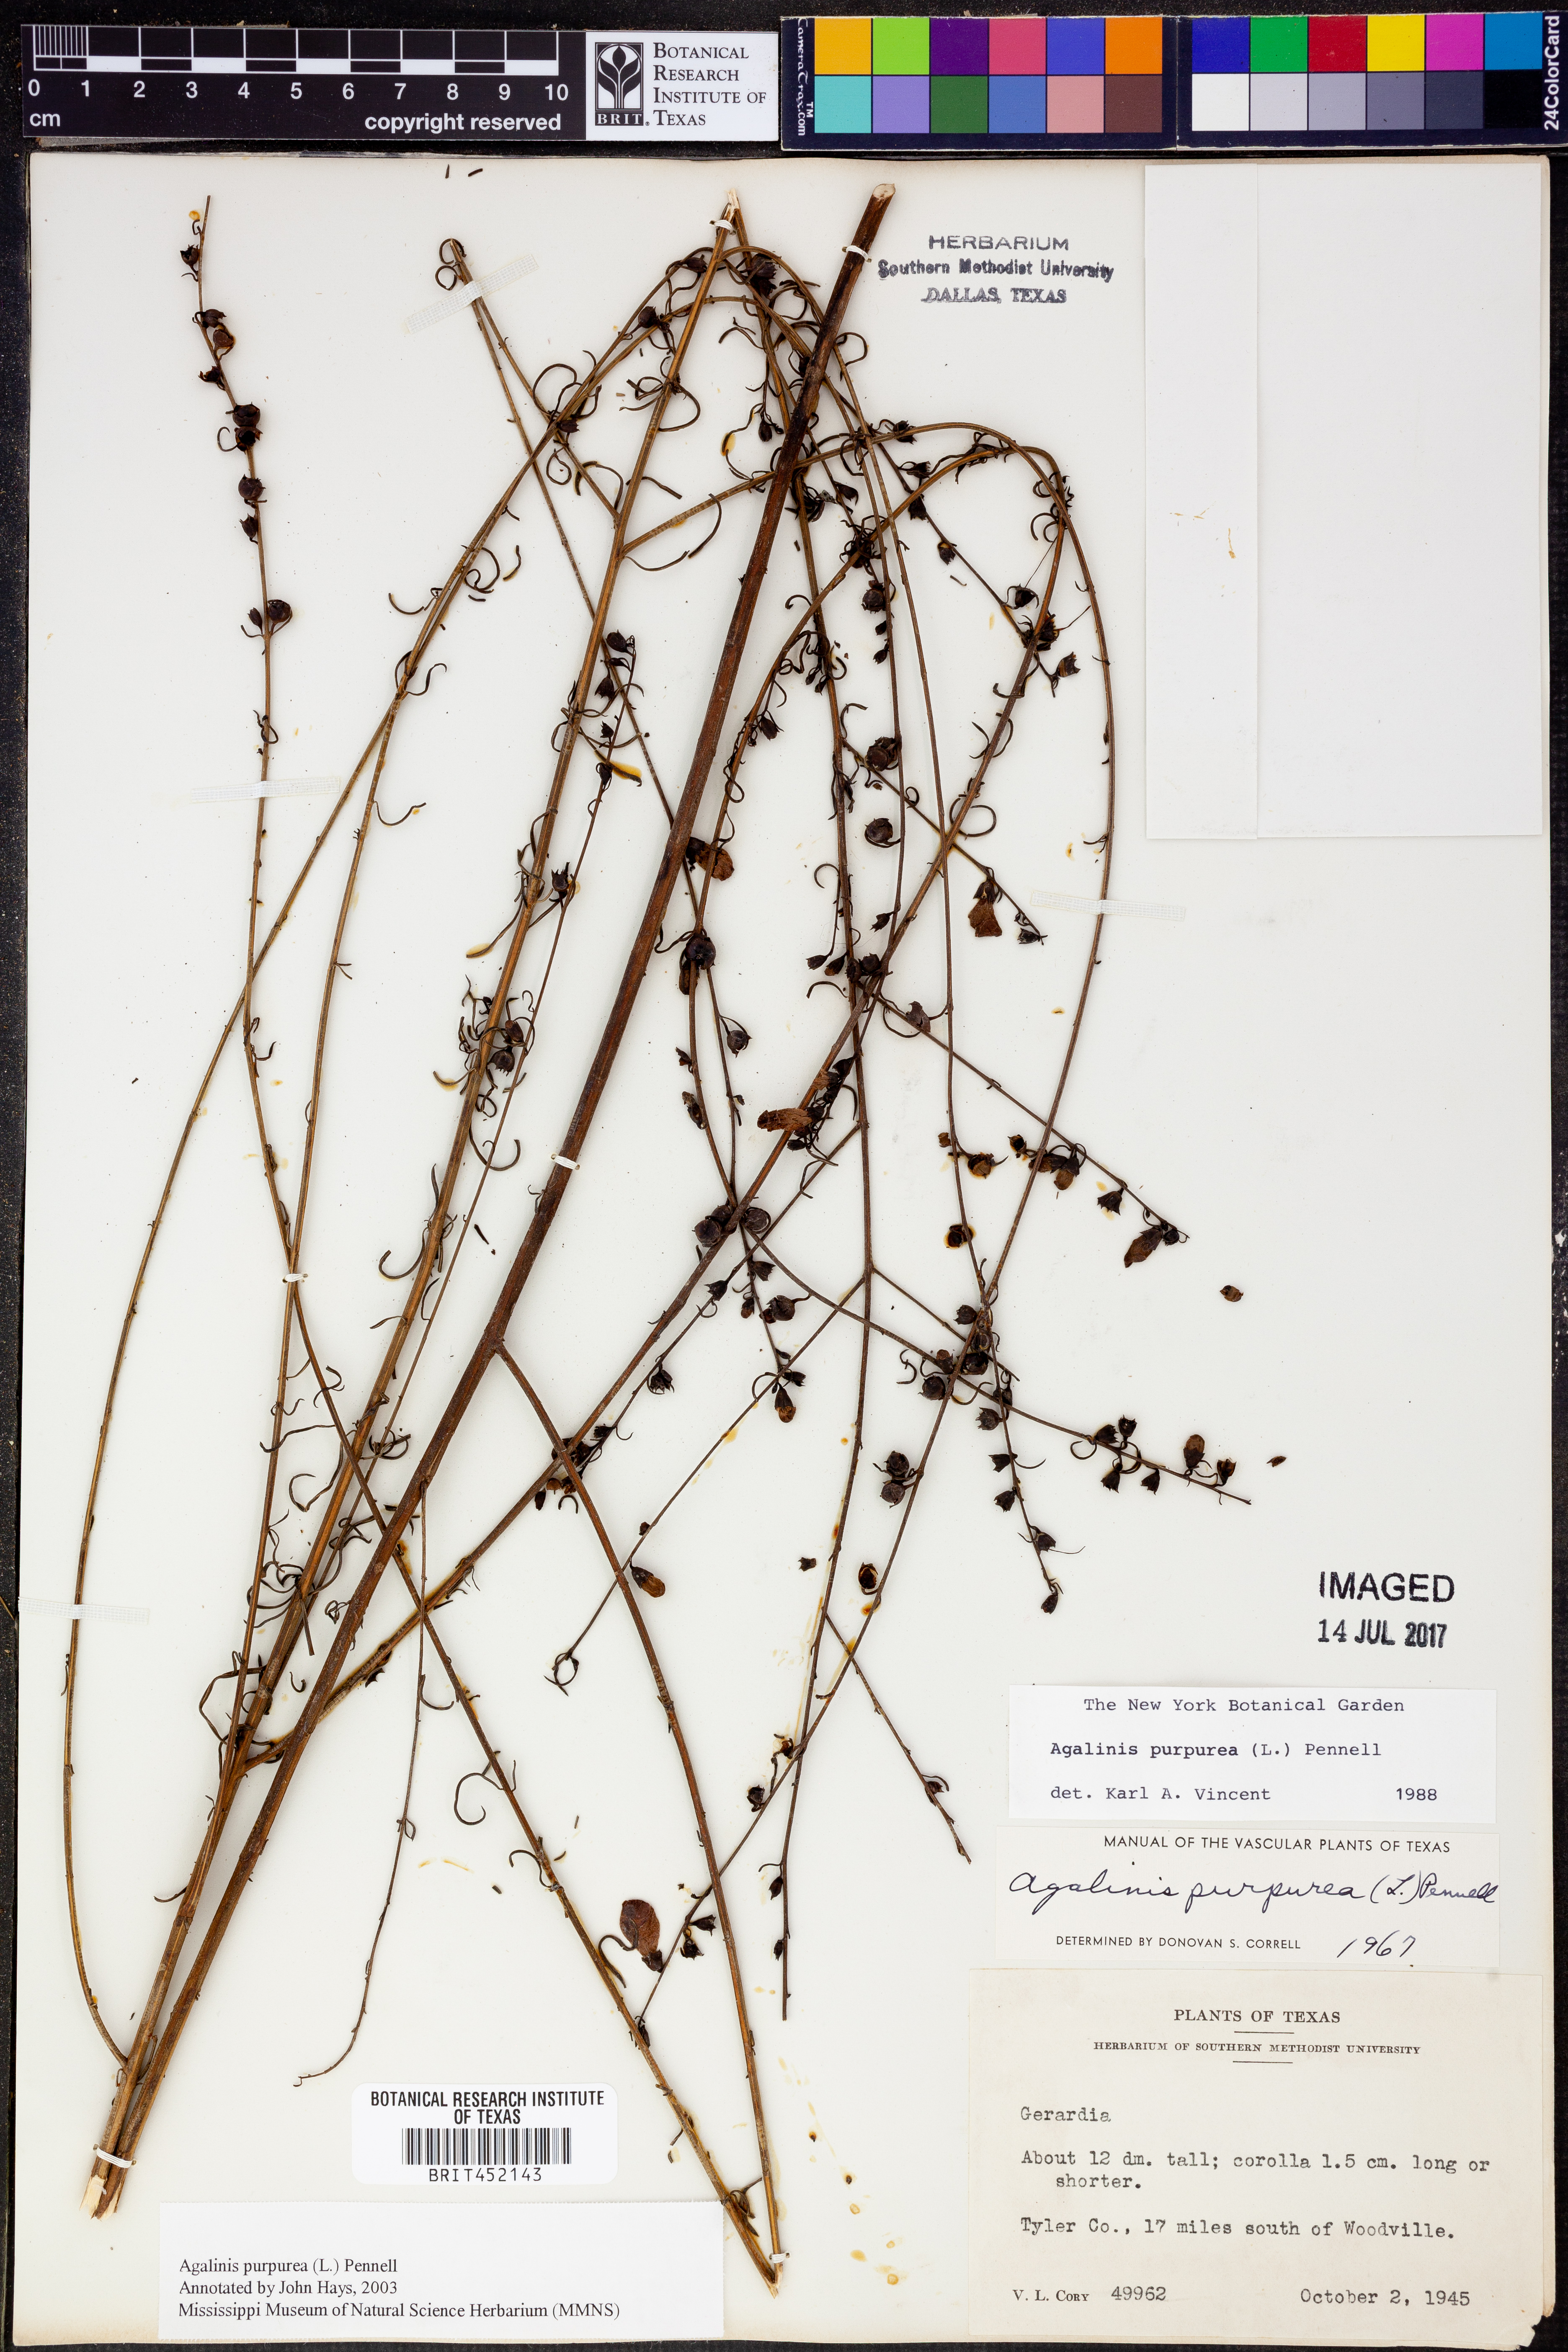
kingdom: Plantae
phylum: Tracheophyta
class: Magnoliopsida
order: Lamiales
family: Orobanchaceae
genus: Agalinis
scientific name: Agalinis purpurea
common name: Purple false foxglove
